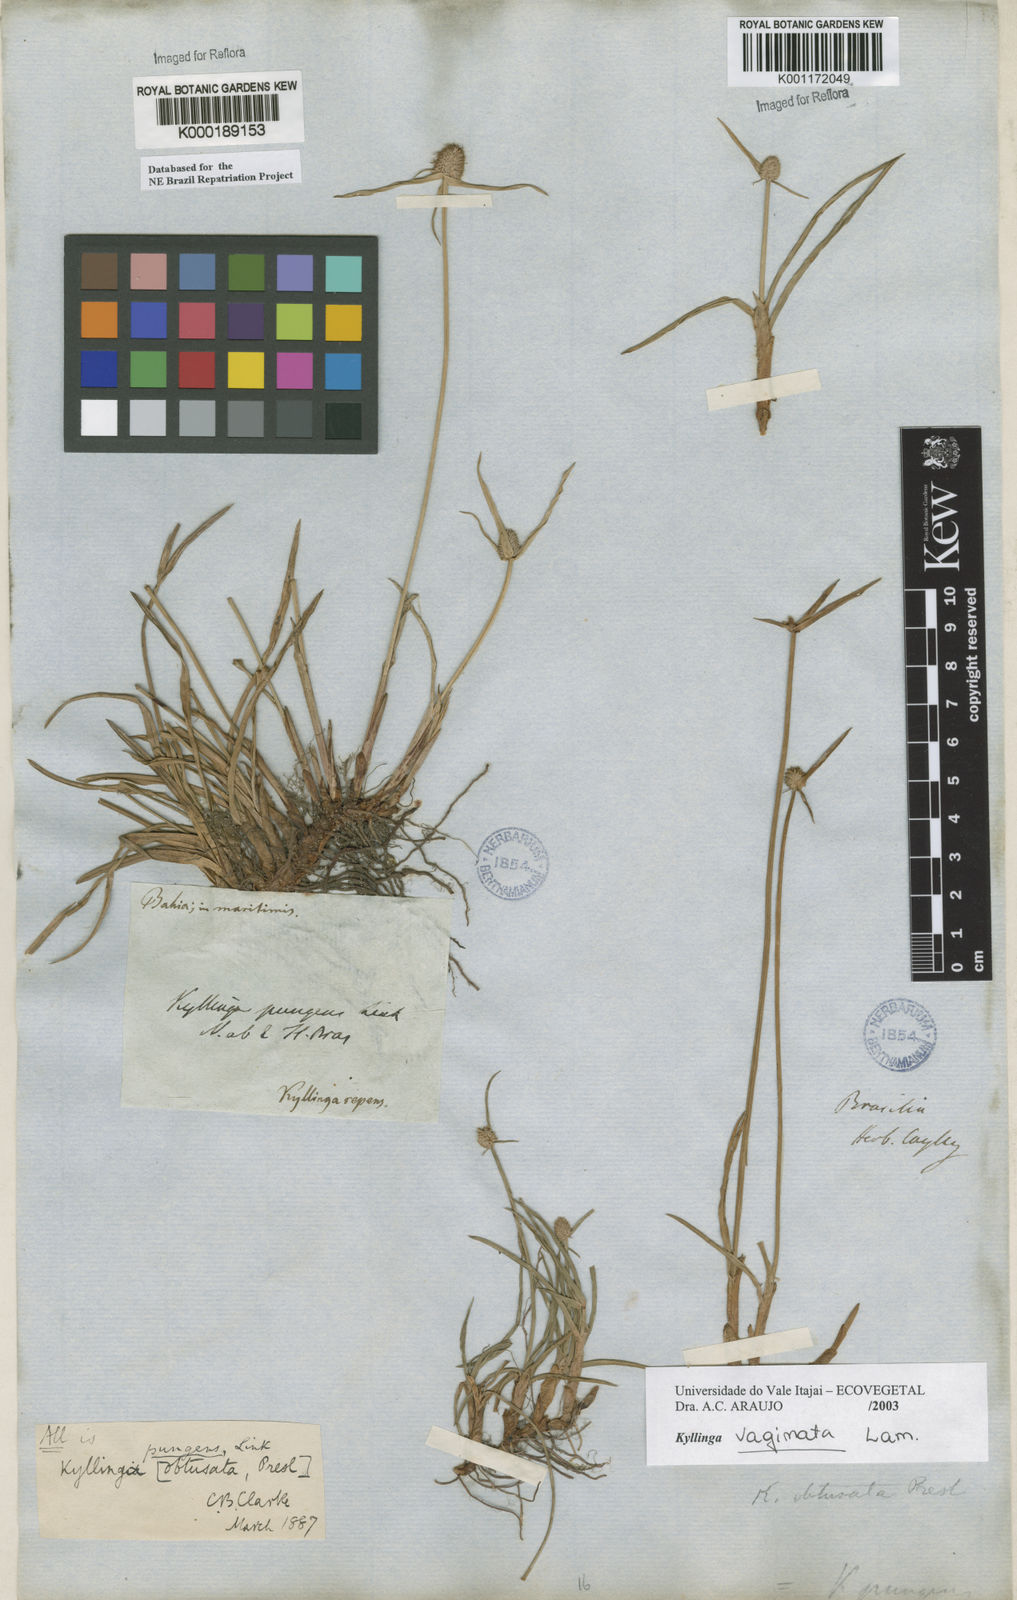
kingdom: Plantae
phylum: Tracheophyta
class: Liliopsida
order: Poales
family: Cyperaceae
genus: Cyperus
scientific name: Cyperus obtusatus
